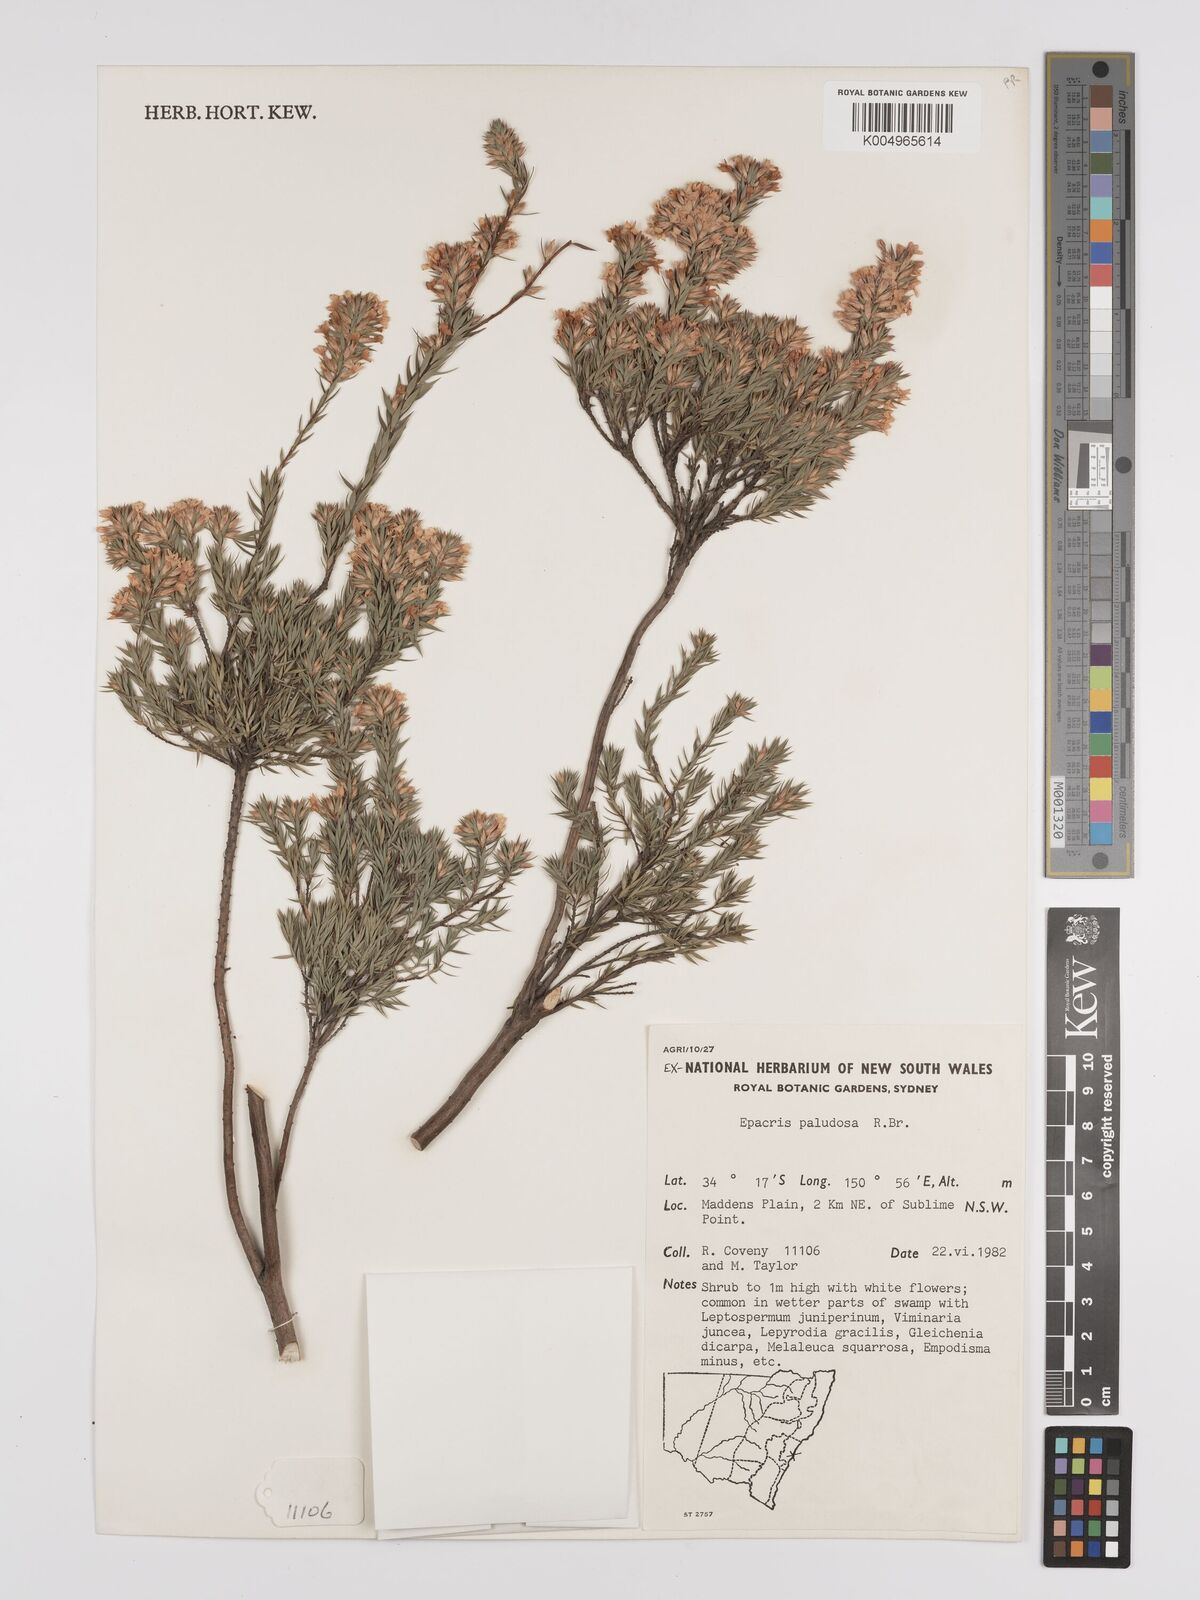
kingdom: Plantae
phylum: Tracheophyta
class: Magnoliopsida
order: Ericales
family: Ericaceae
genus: Epacris
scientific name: Epacris paludosa
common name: Swamp-heath
